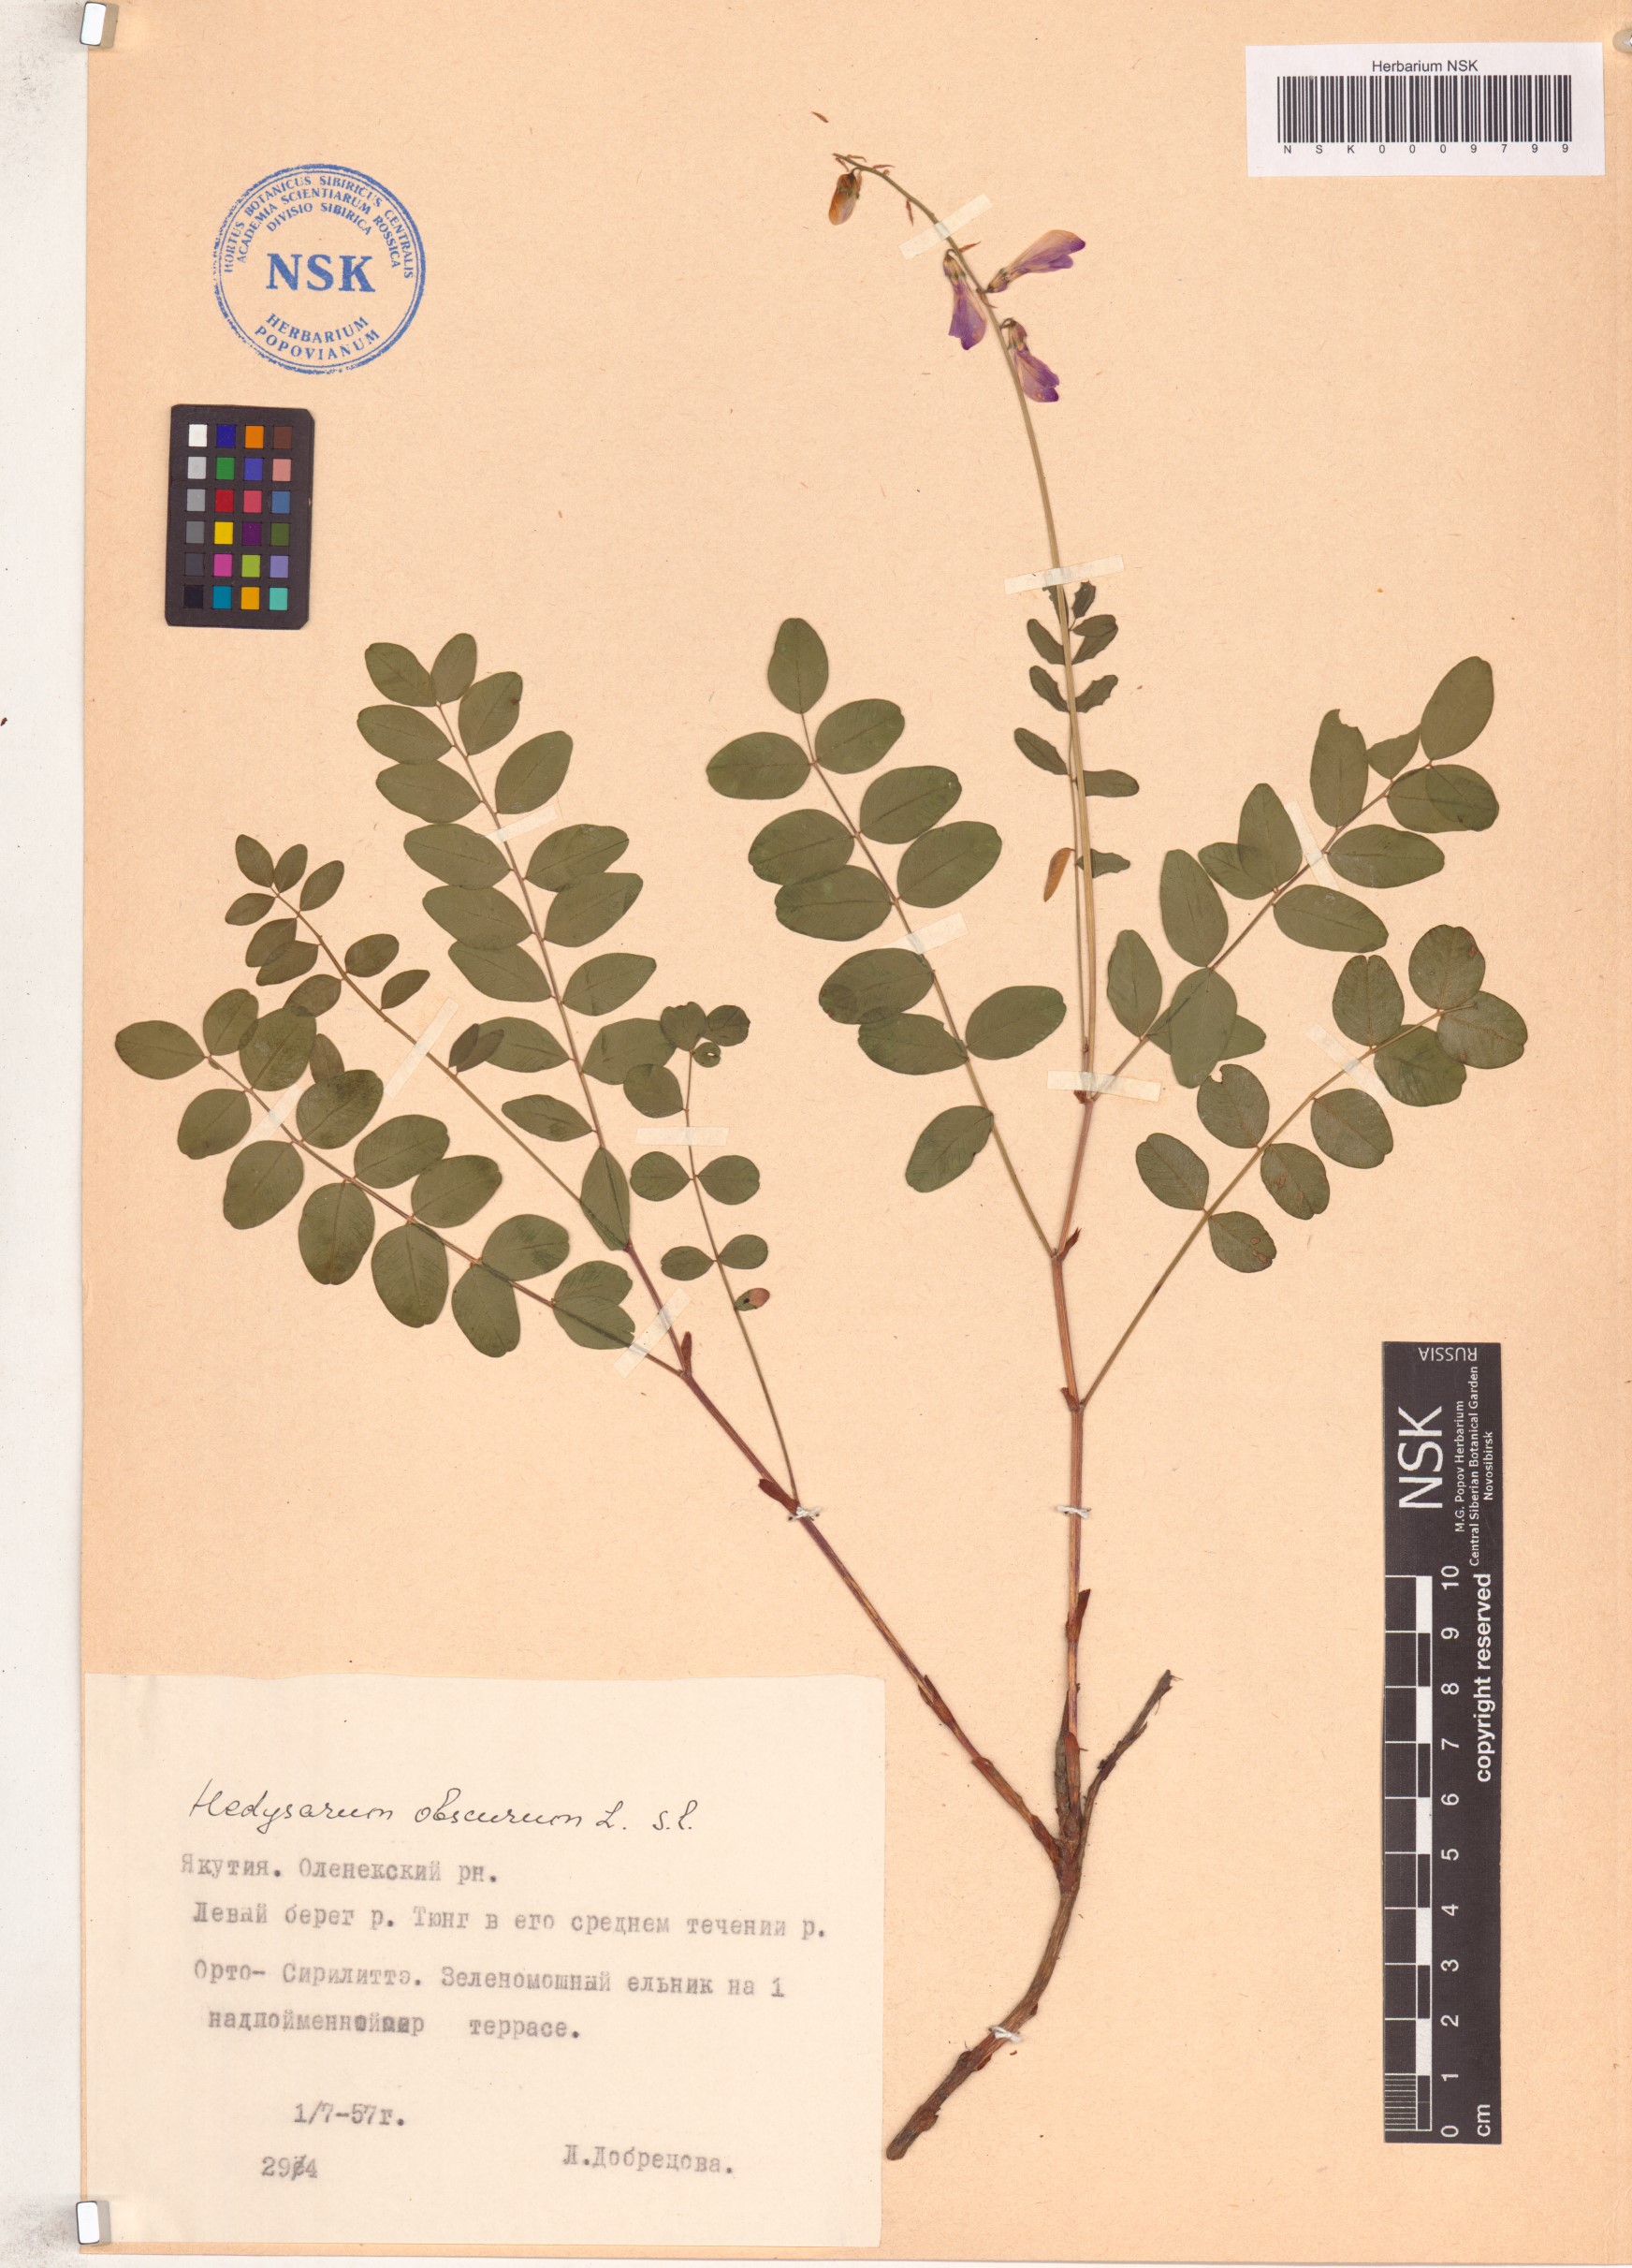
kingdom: Plantae
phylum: Tracheophyta
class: Magnoliopsida
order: Fabales
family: Fabaceae
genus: Hedysarum
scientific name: Hedysarum hedysaroides
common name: Alpine french-honeysuckle
